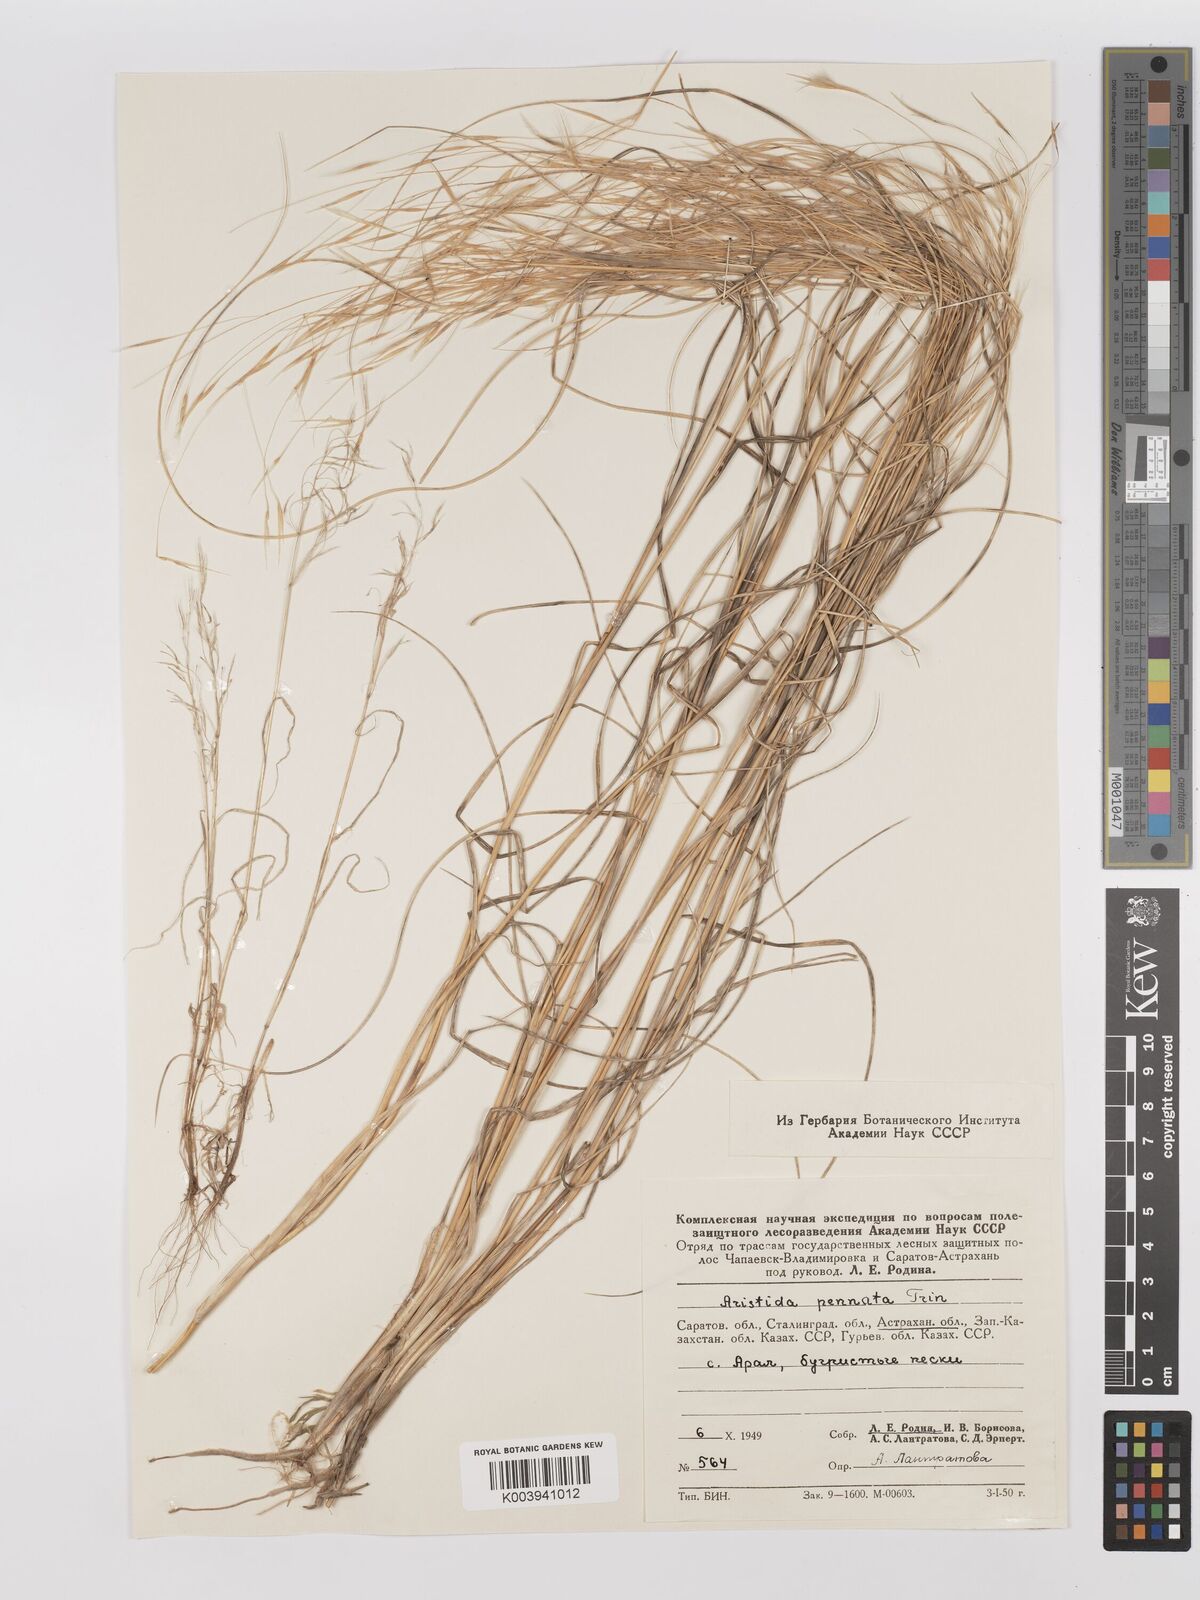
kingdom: Plantae
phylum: Tracheophyta
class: Liliopsida
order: Poales
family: Poaceae
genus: Stipagrostis
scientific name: Stipagrostis pennata
